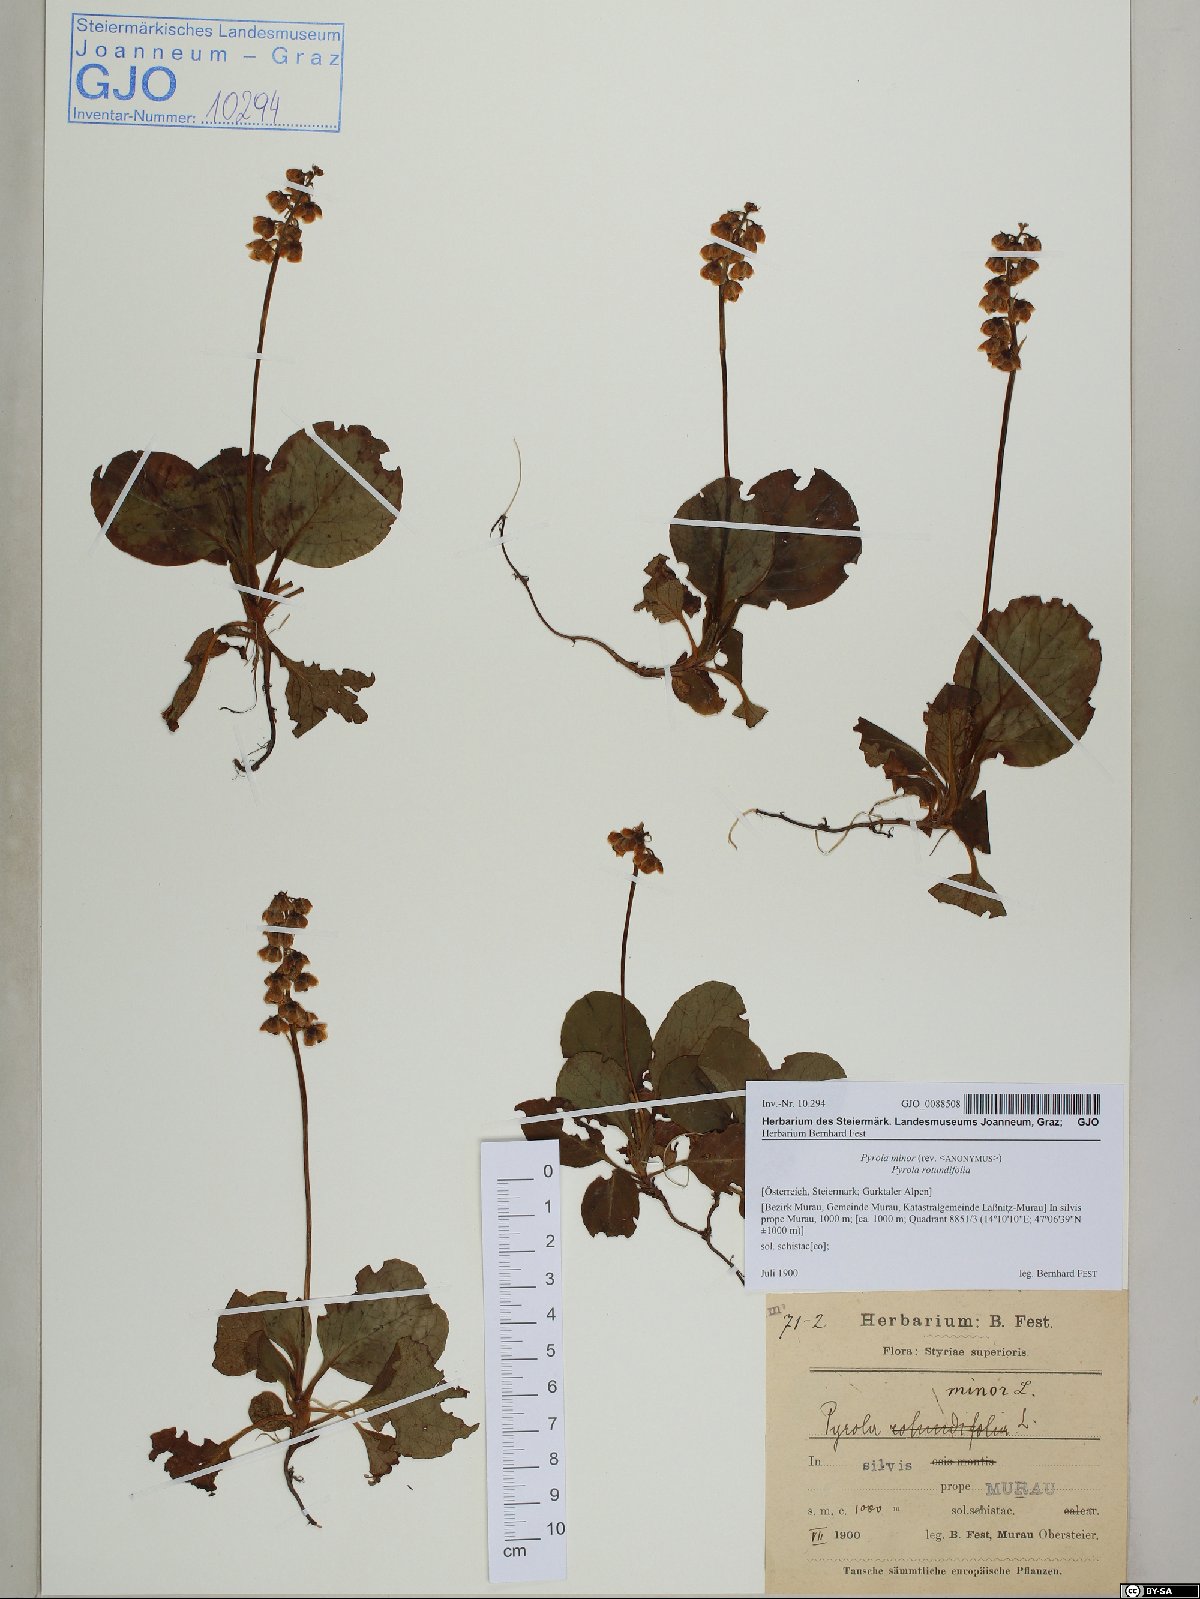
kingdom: Plantae
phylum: Tracheophyta
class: Magnoliopsida
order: Ericales
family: Ericaceae
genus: Pyrola
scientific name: Pyrola minor
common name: Common wintergreen
